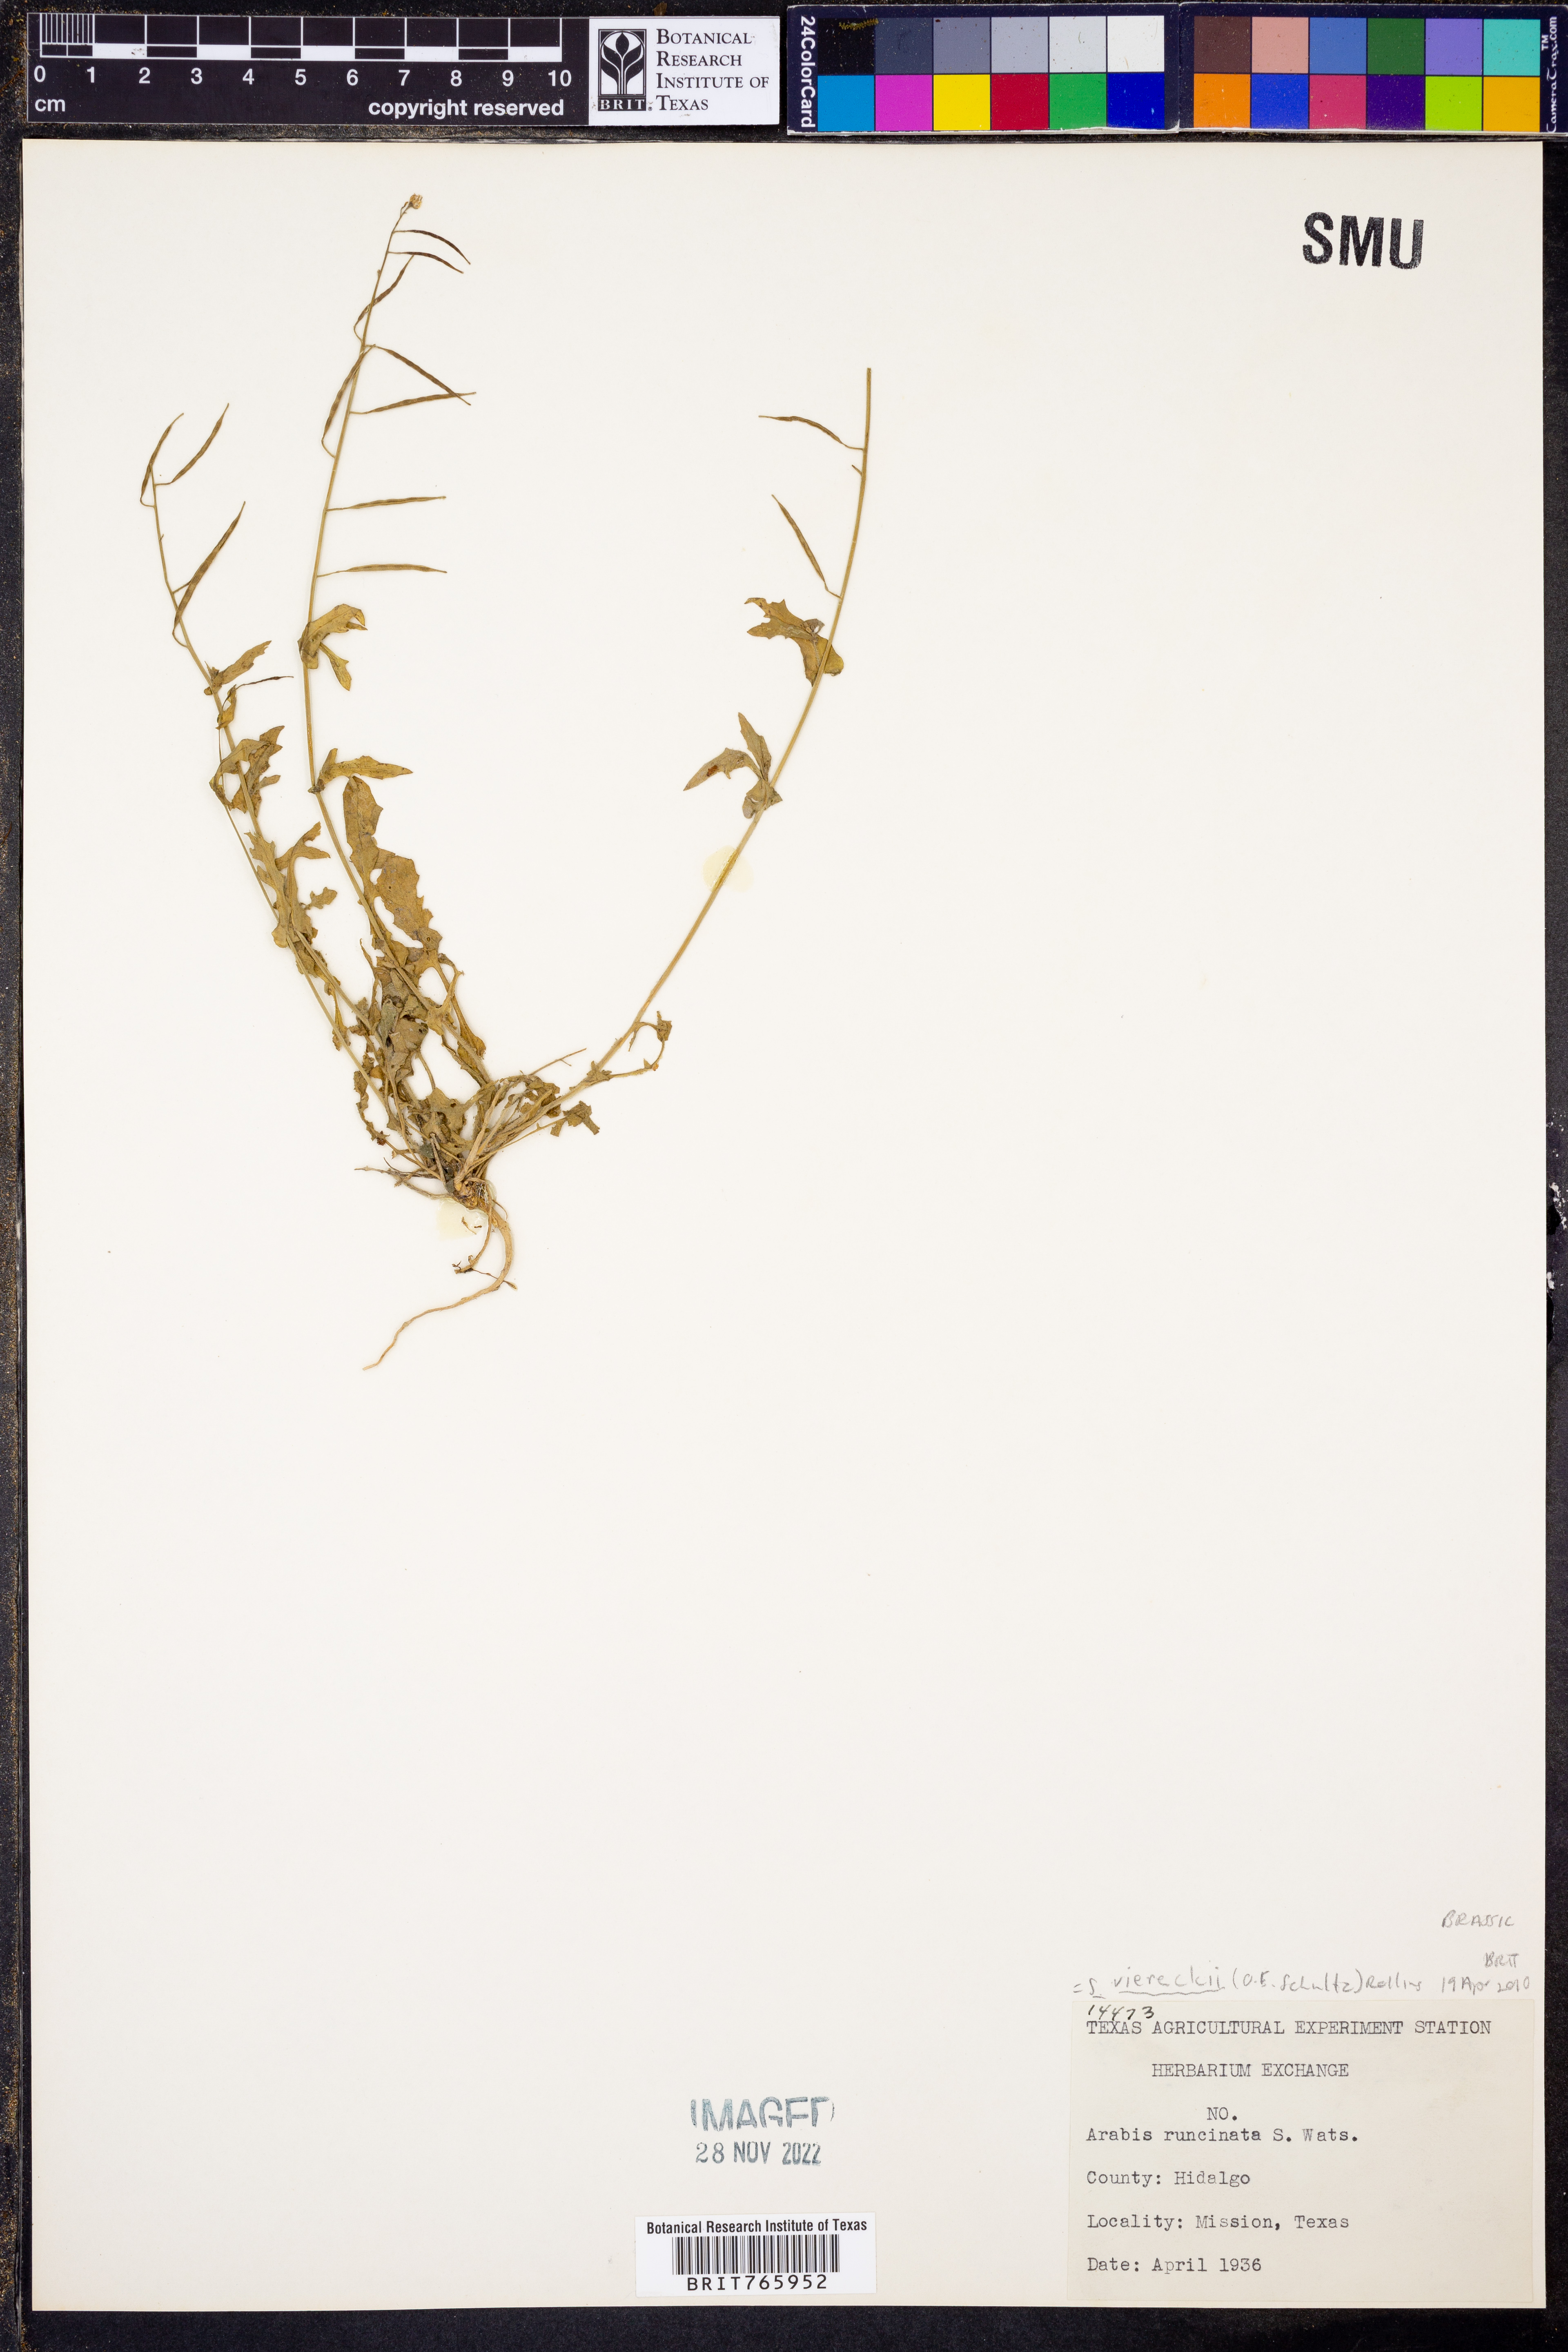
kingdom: Plantae
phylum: Tracheophyta
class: Magnoliopsida
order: Brassicales
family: Brassicaceae
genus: Phravenia
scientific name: Phravenia viereckii
